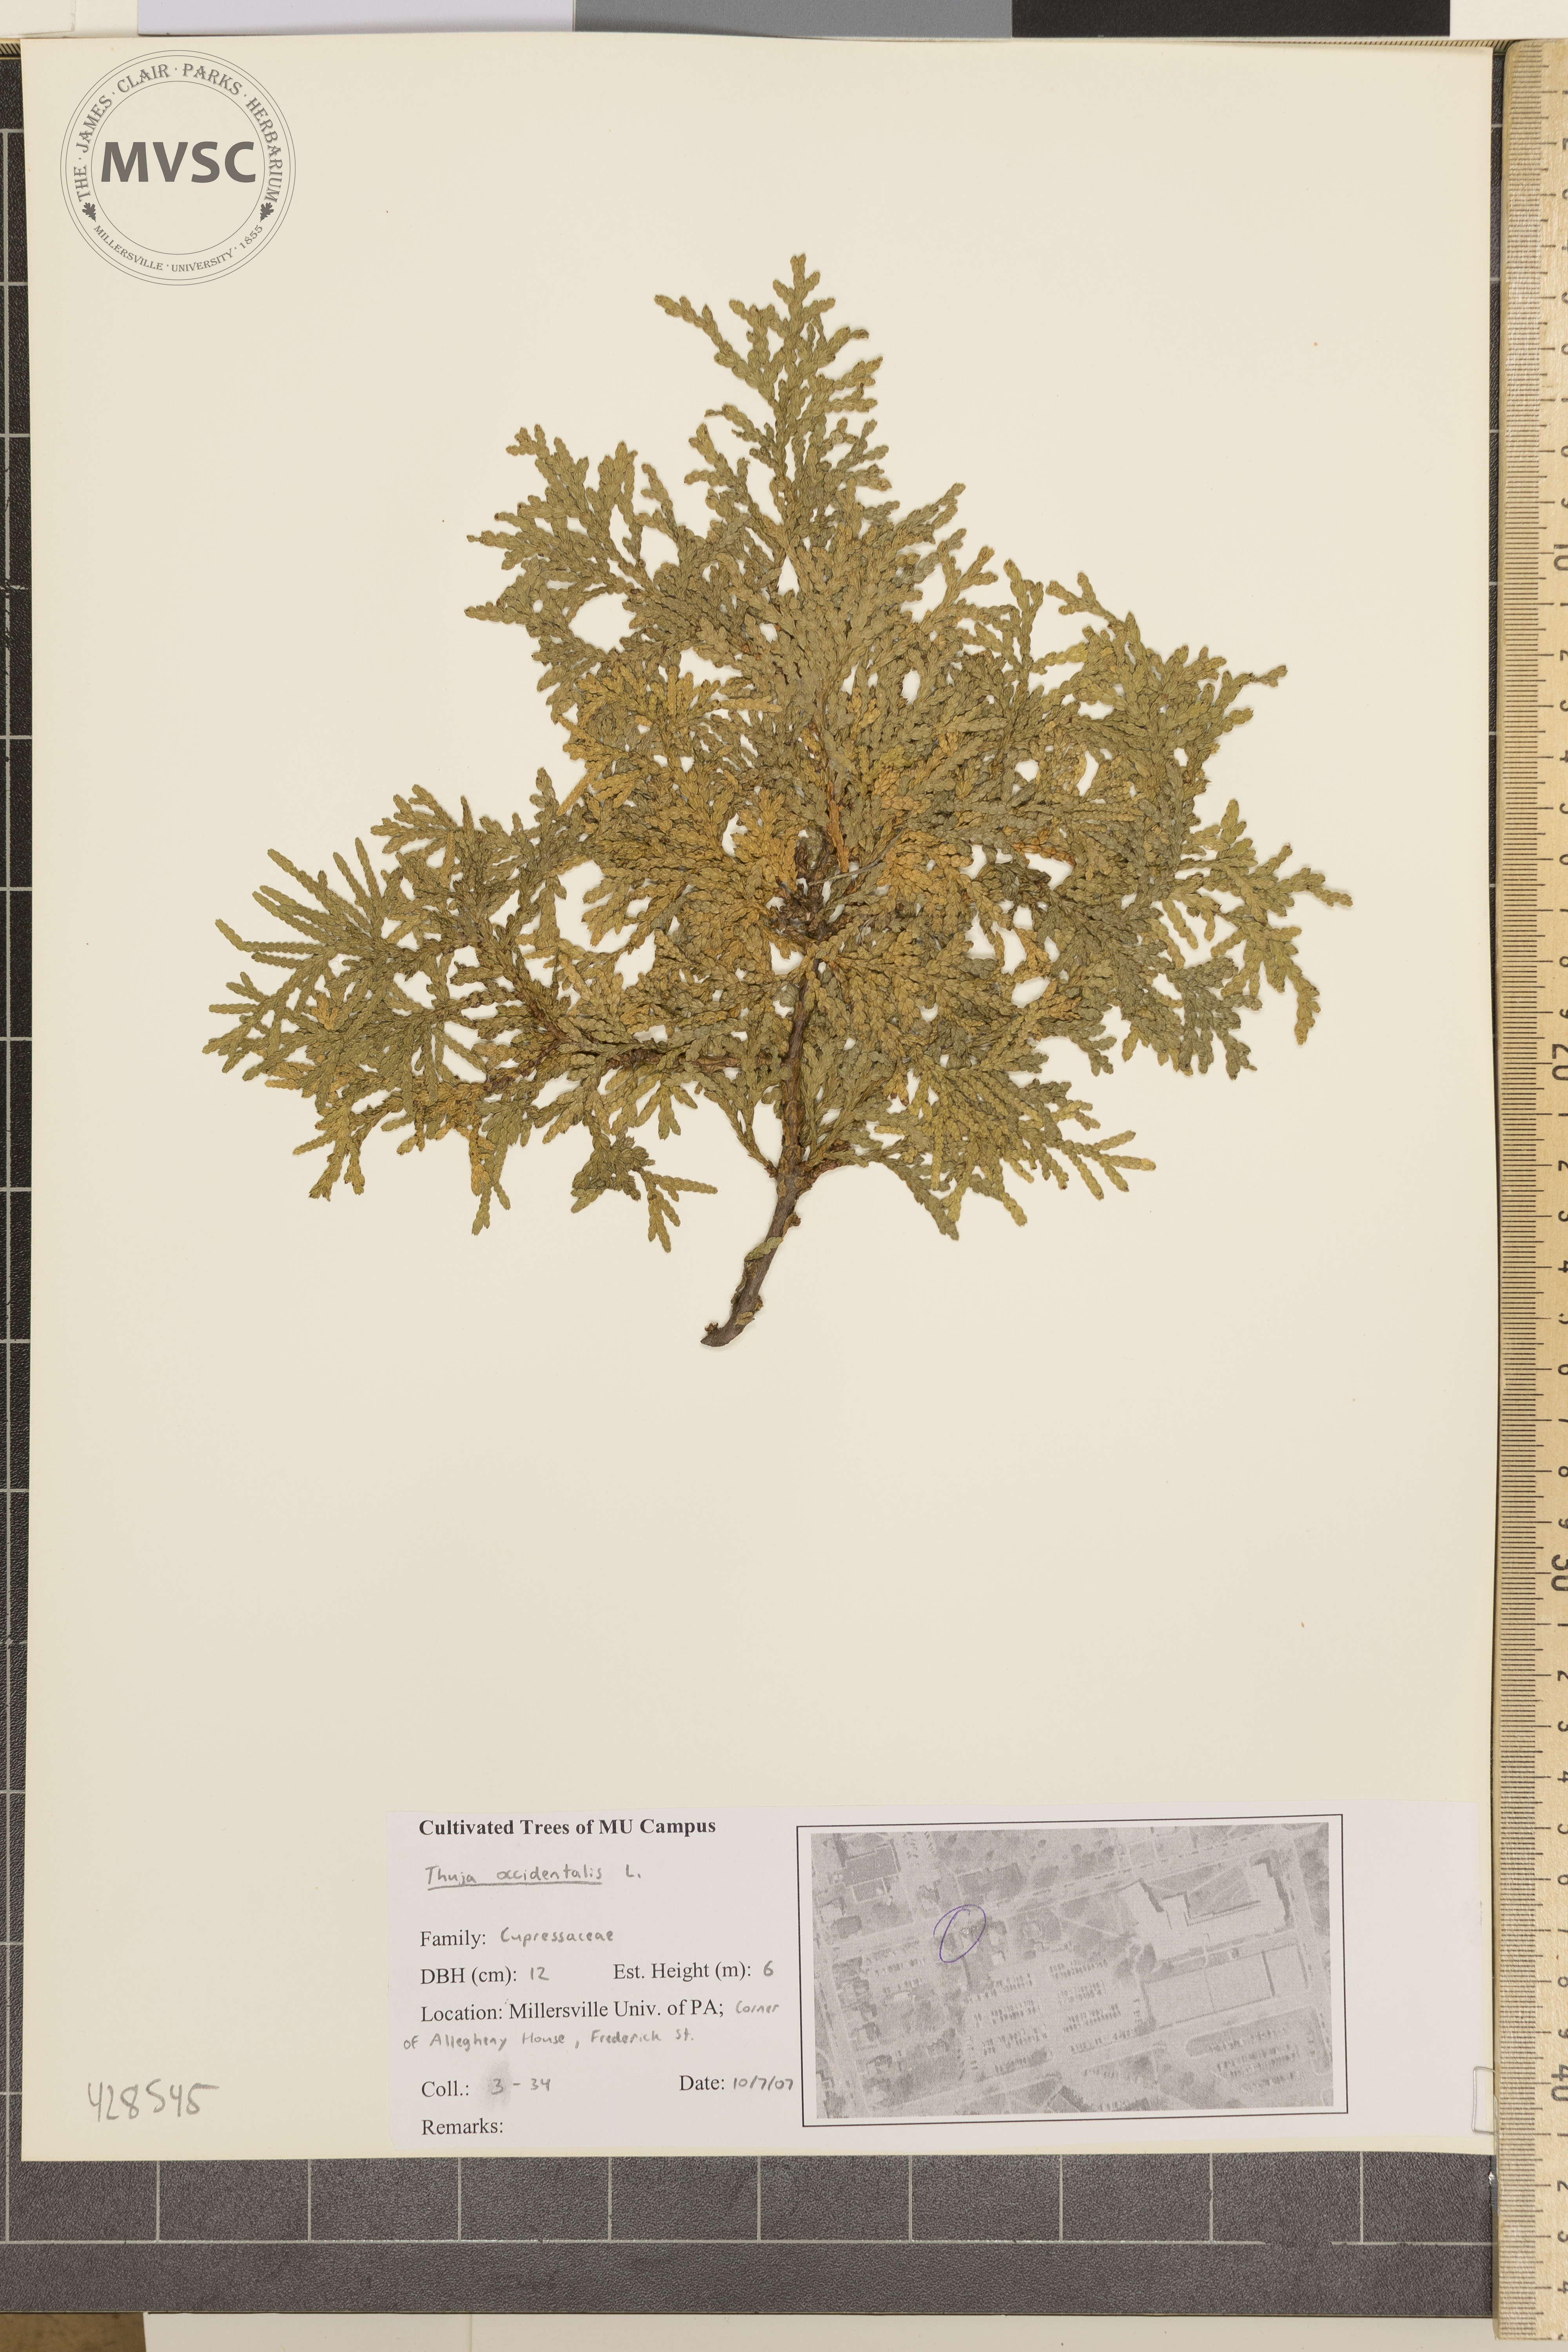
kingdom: Plantae
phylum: Tracheophyta
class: Pinopsida
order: Pinales
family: Cupressaceae
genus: Thuja
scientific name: Thuja occidentalis
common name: Arborvitae
